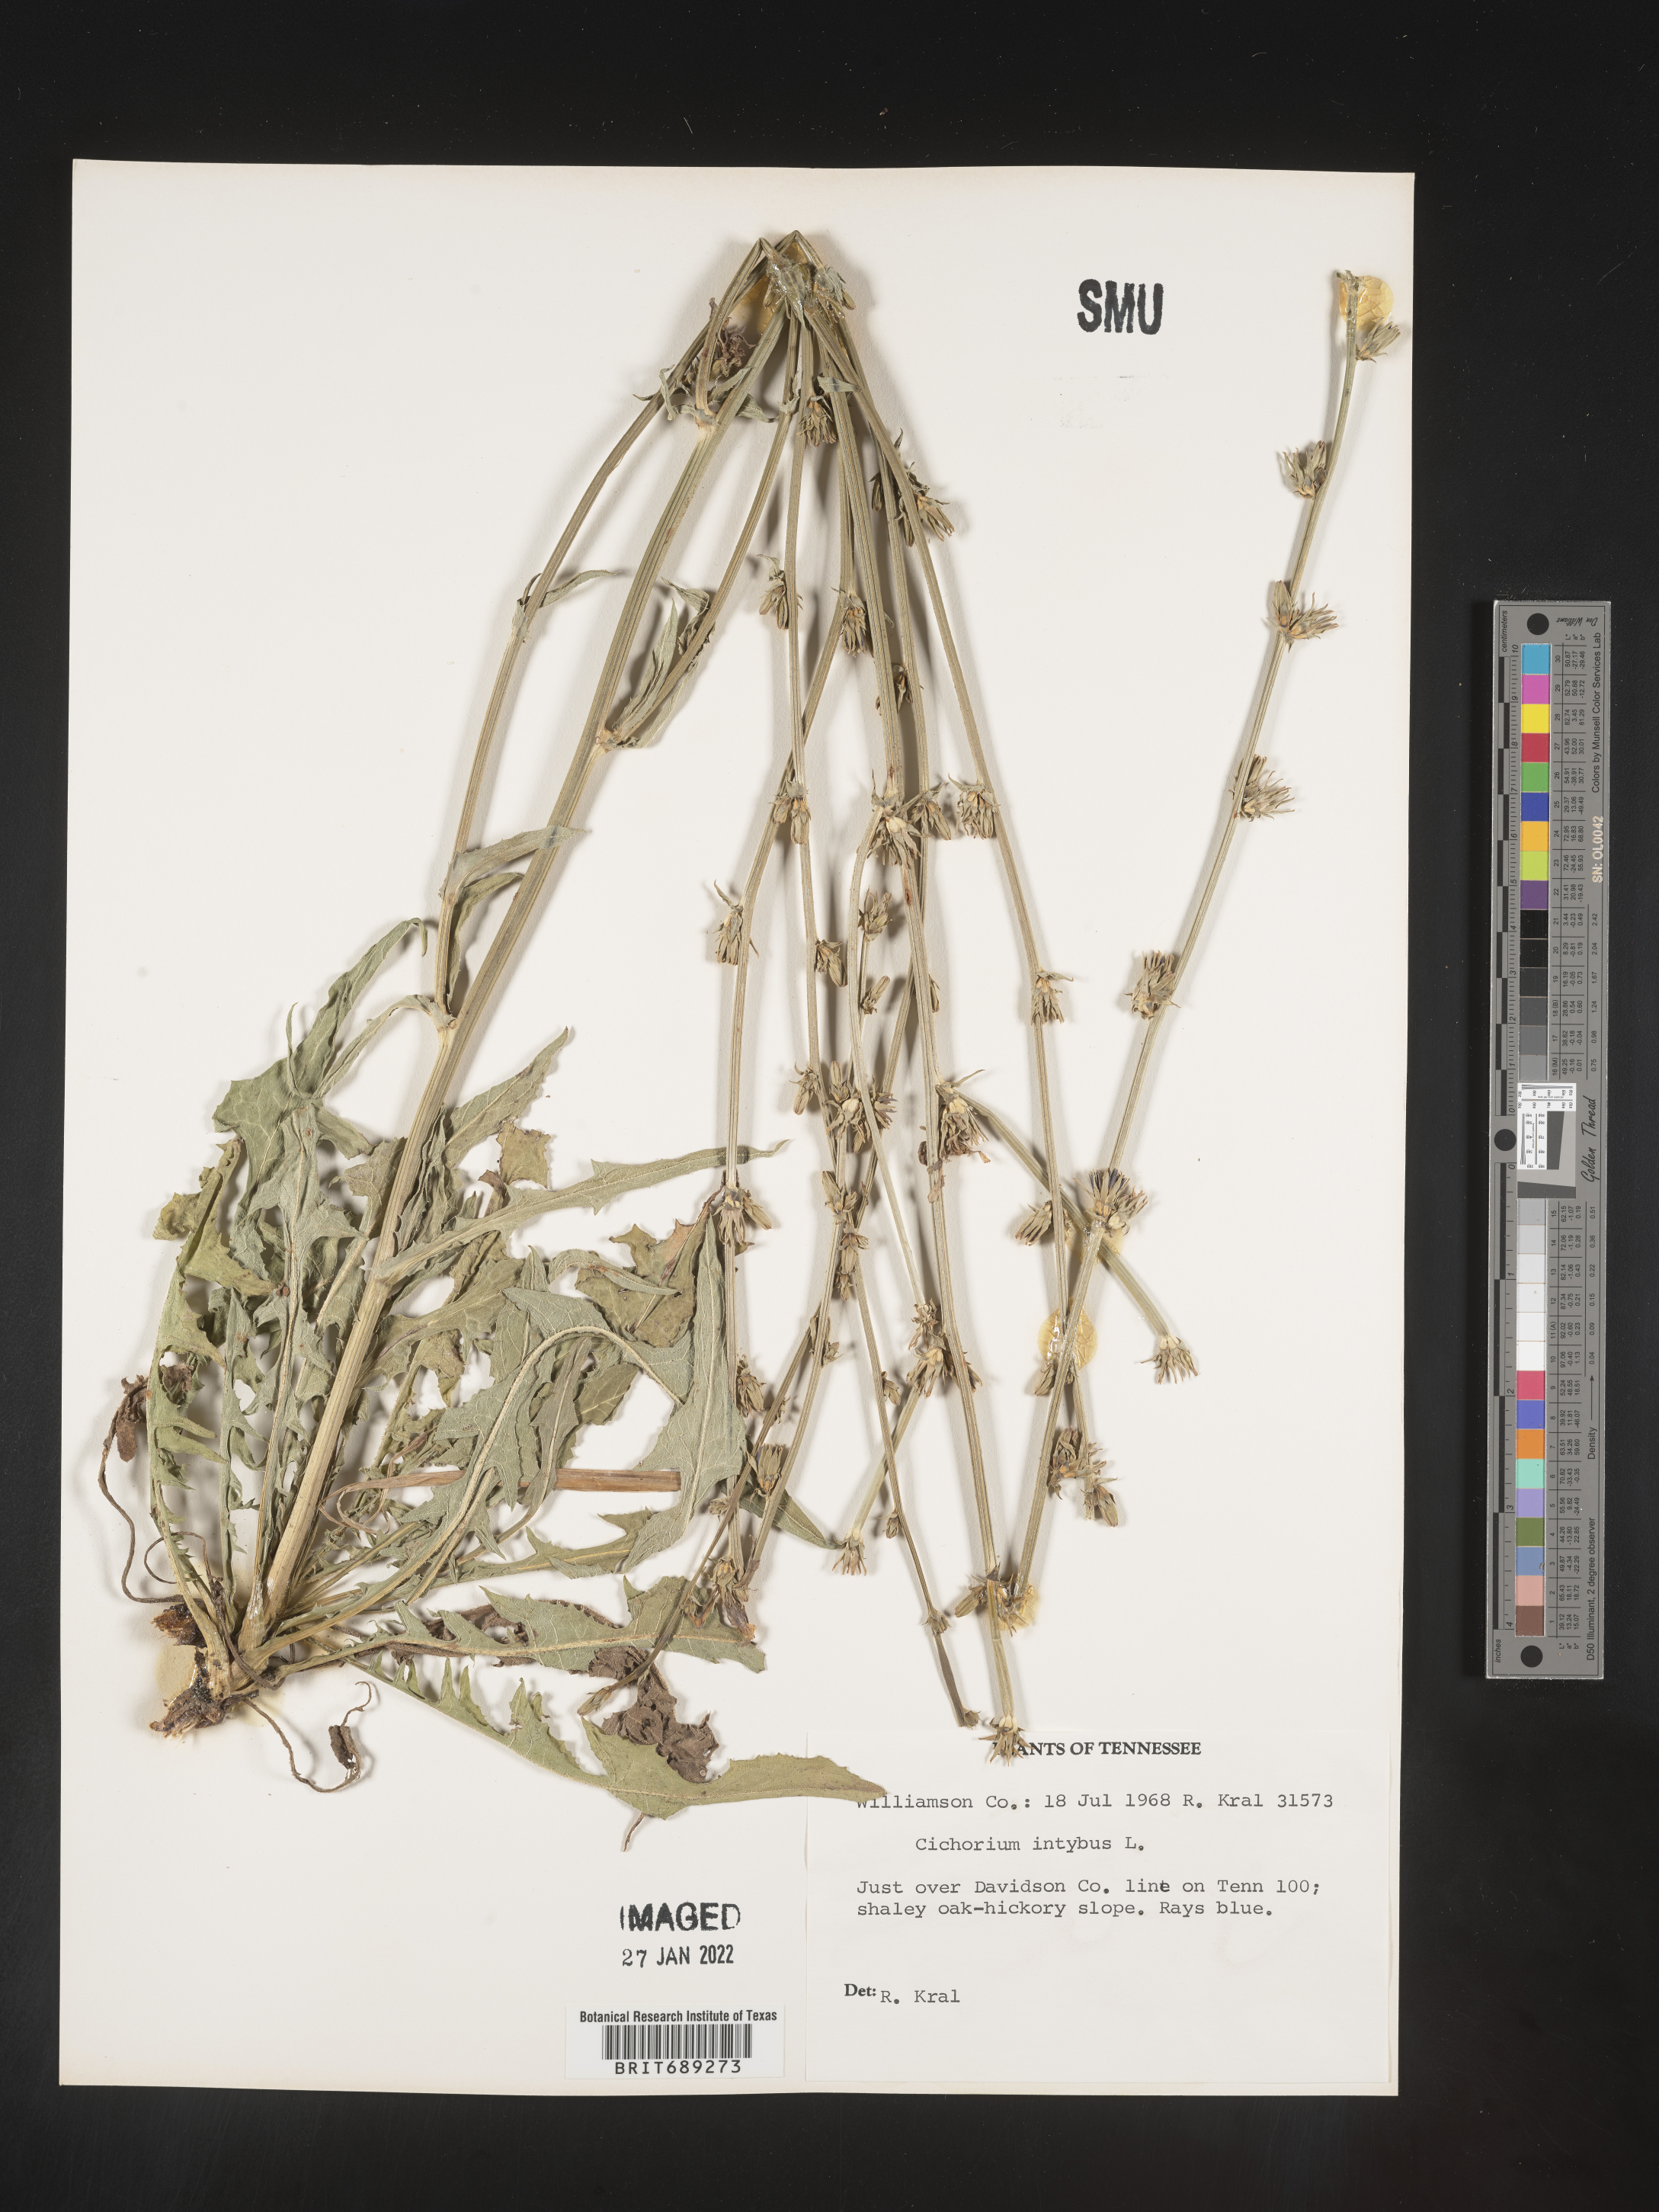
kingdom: Plantae
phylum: Tracheophyta
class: Magnoliopsida
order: Asterales
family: Asteraceae
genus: Cichorium
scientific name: Cichorium intybus
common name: Chicory
